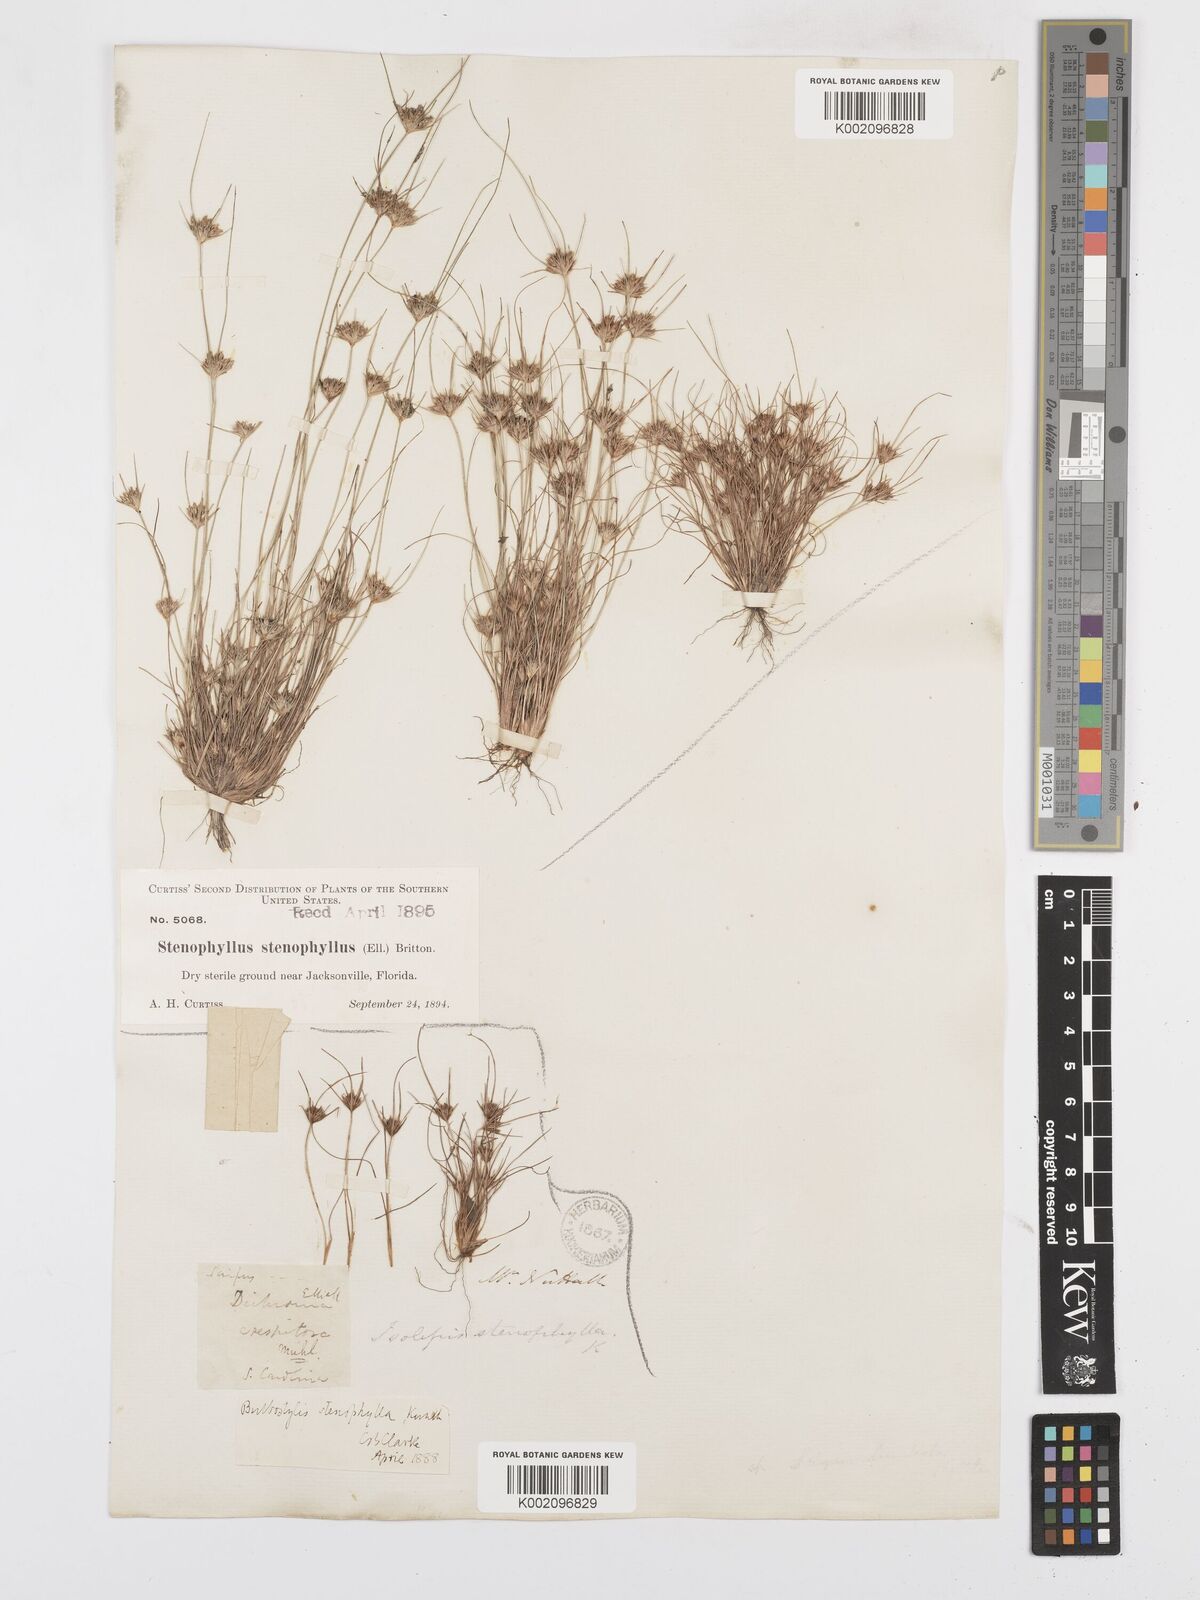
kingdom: Plantae
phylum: Tracheophyta
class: Liliopsida
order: Poales
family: Cyperaceae
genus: Bulbostylis
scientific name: Bulbostylis rarissima
